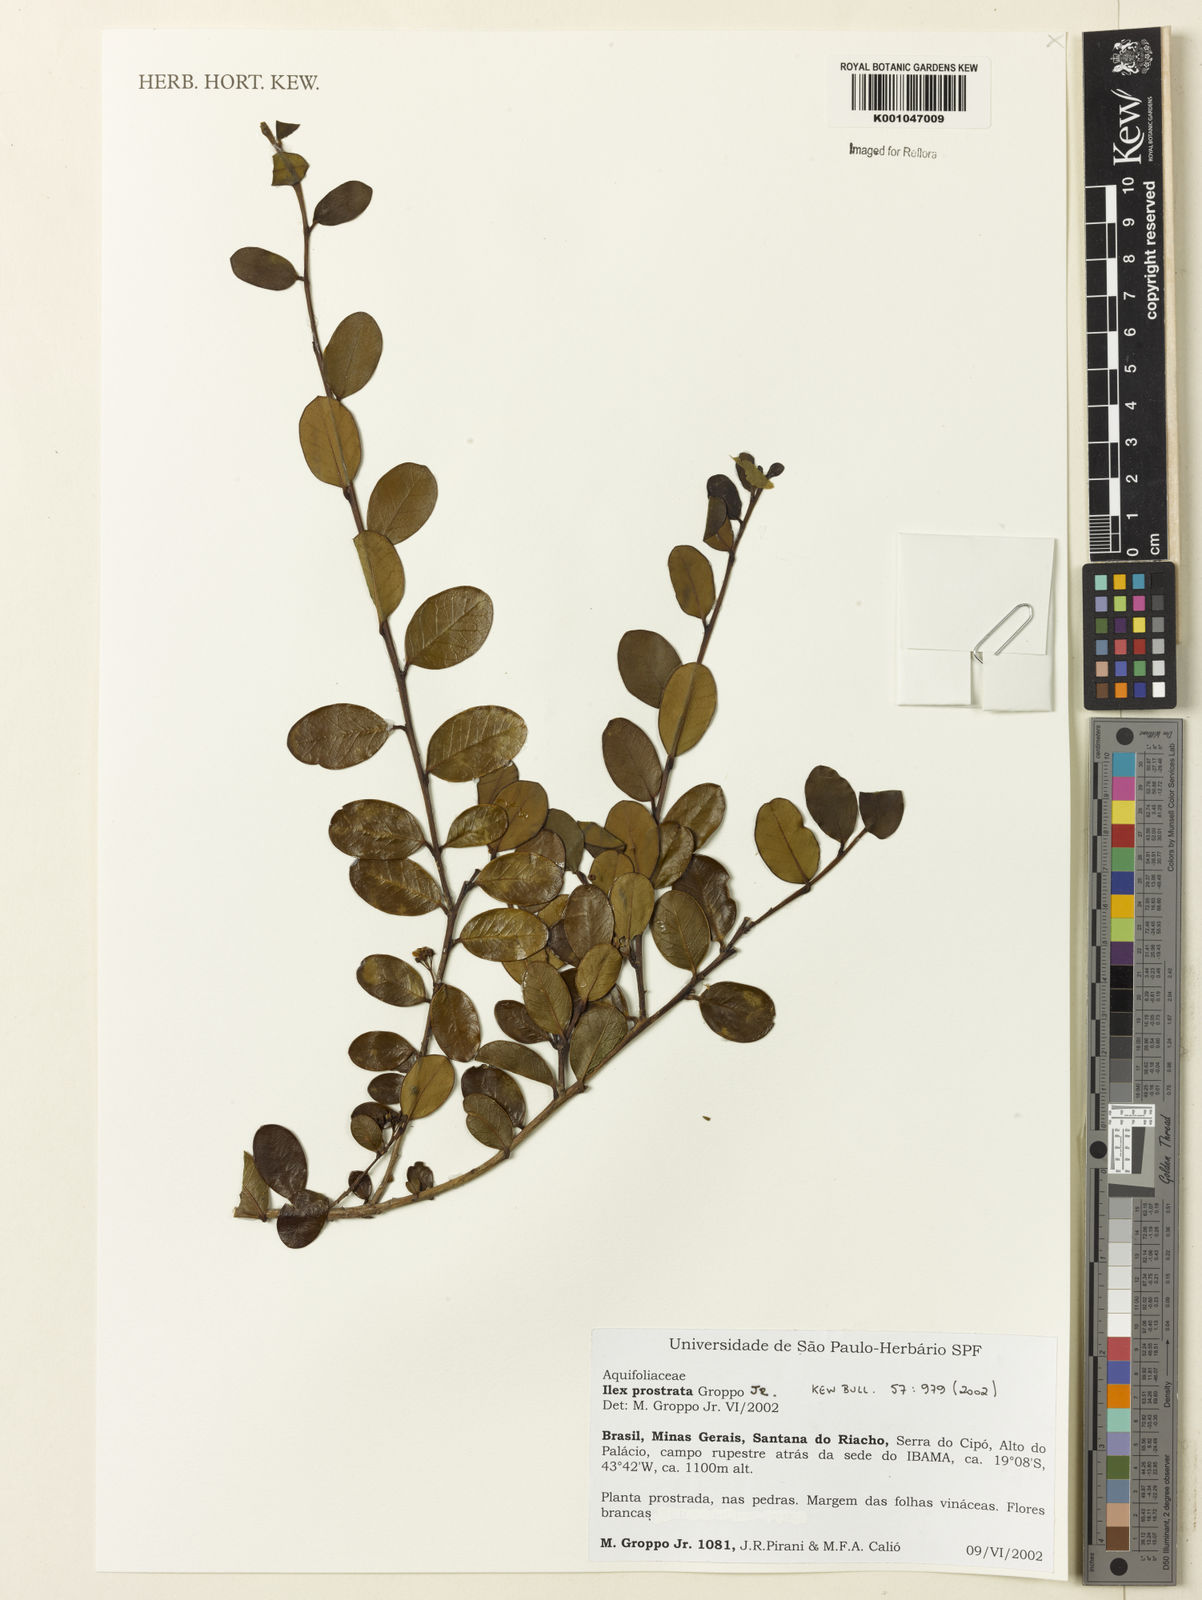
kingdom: Plantae
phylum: Tracheophyta
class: Magnoliopsida
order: Aquifoliales
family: Aquifoliaceae
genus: Ilex
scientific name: Ilex prostrata
